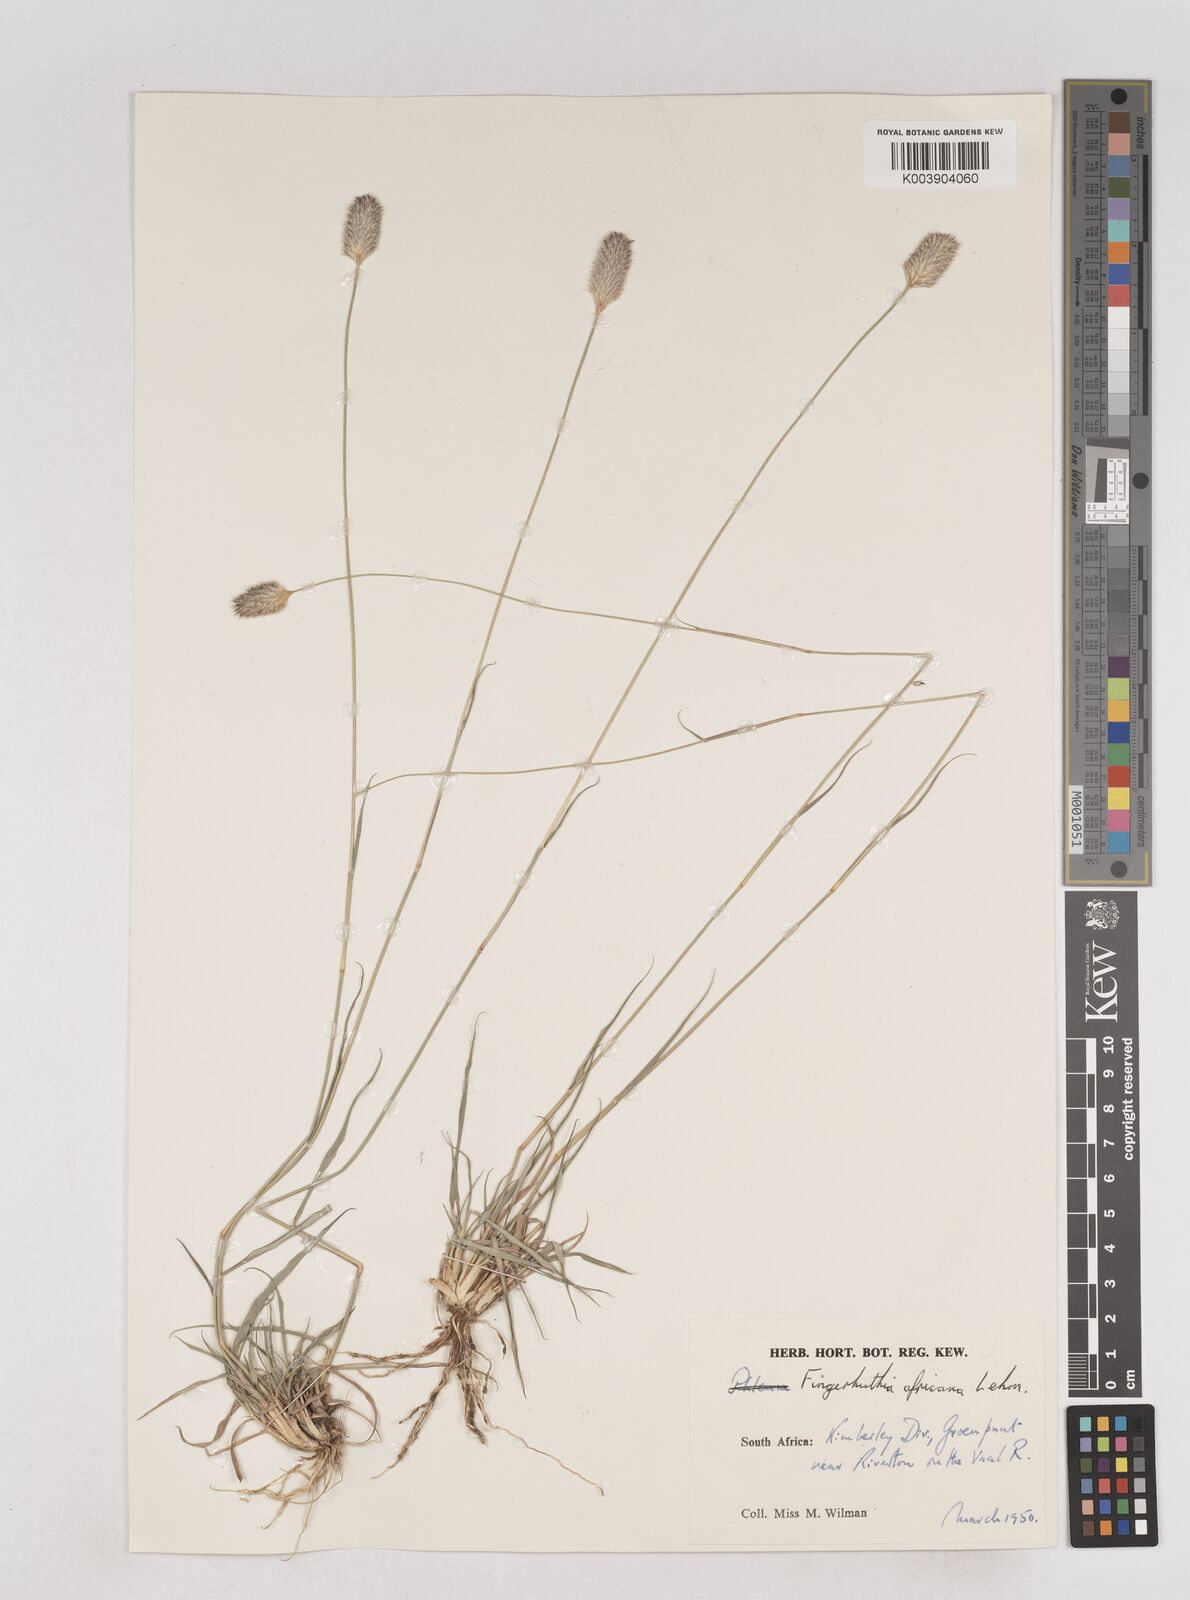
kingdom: Plantae
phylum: Tracheophyta
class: Liliopsida
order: Poales
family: Poaceae
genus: Fingerhuthia
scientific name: Fingerhuthia africana
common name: Zulu fescue
